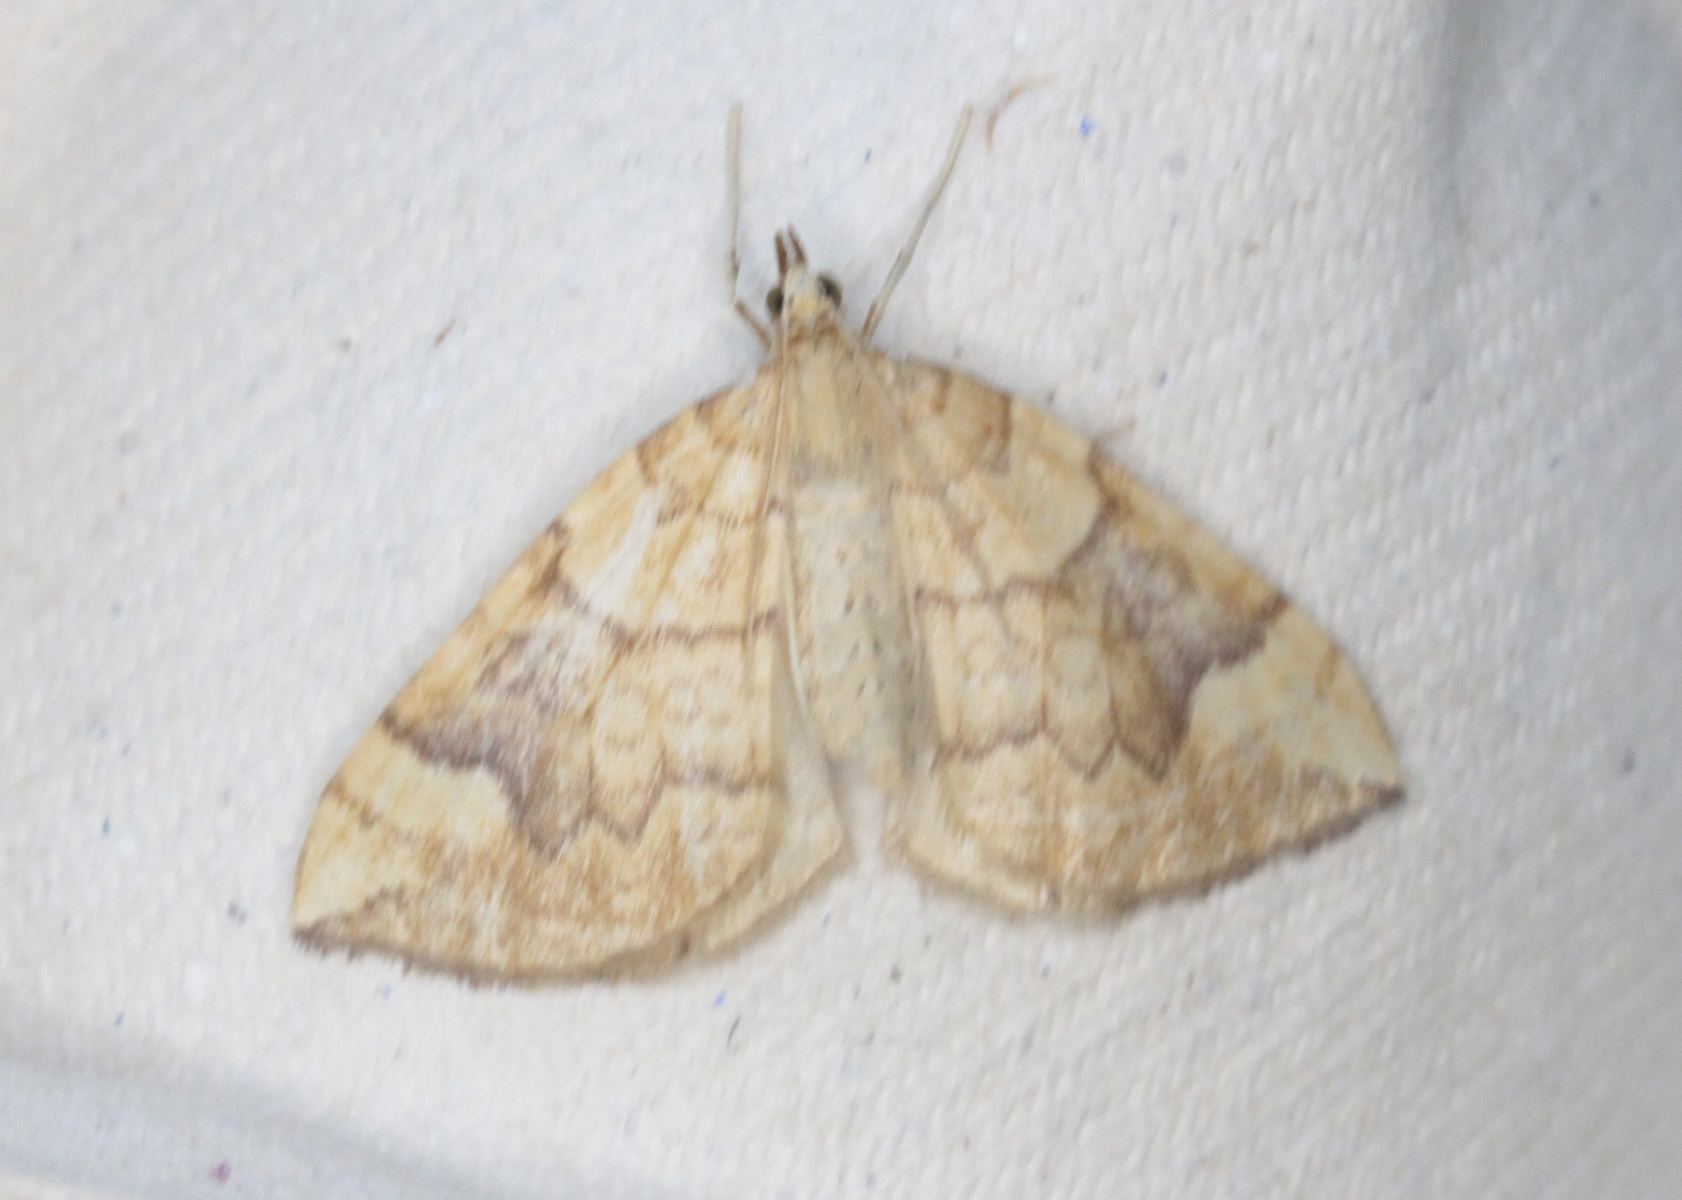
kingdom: Animalia
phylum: Arthropoda
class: Insecta
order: Lepidoptera
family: Geometridae
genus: Eulithis
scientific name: Eulithis populata
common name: Northern spinach
